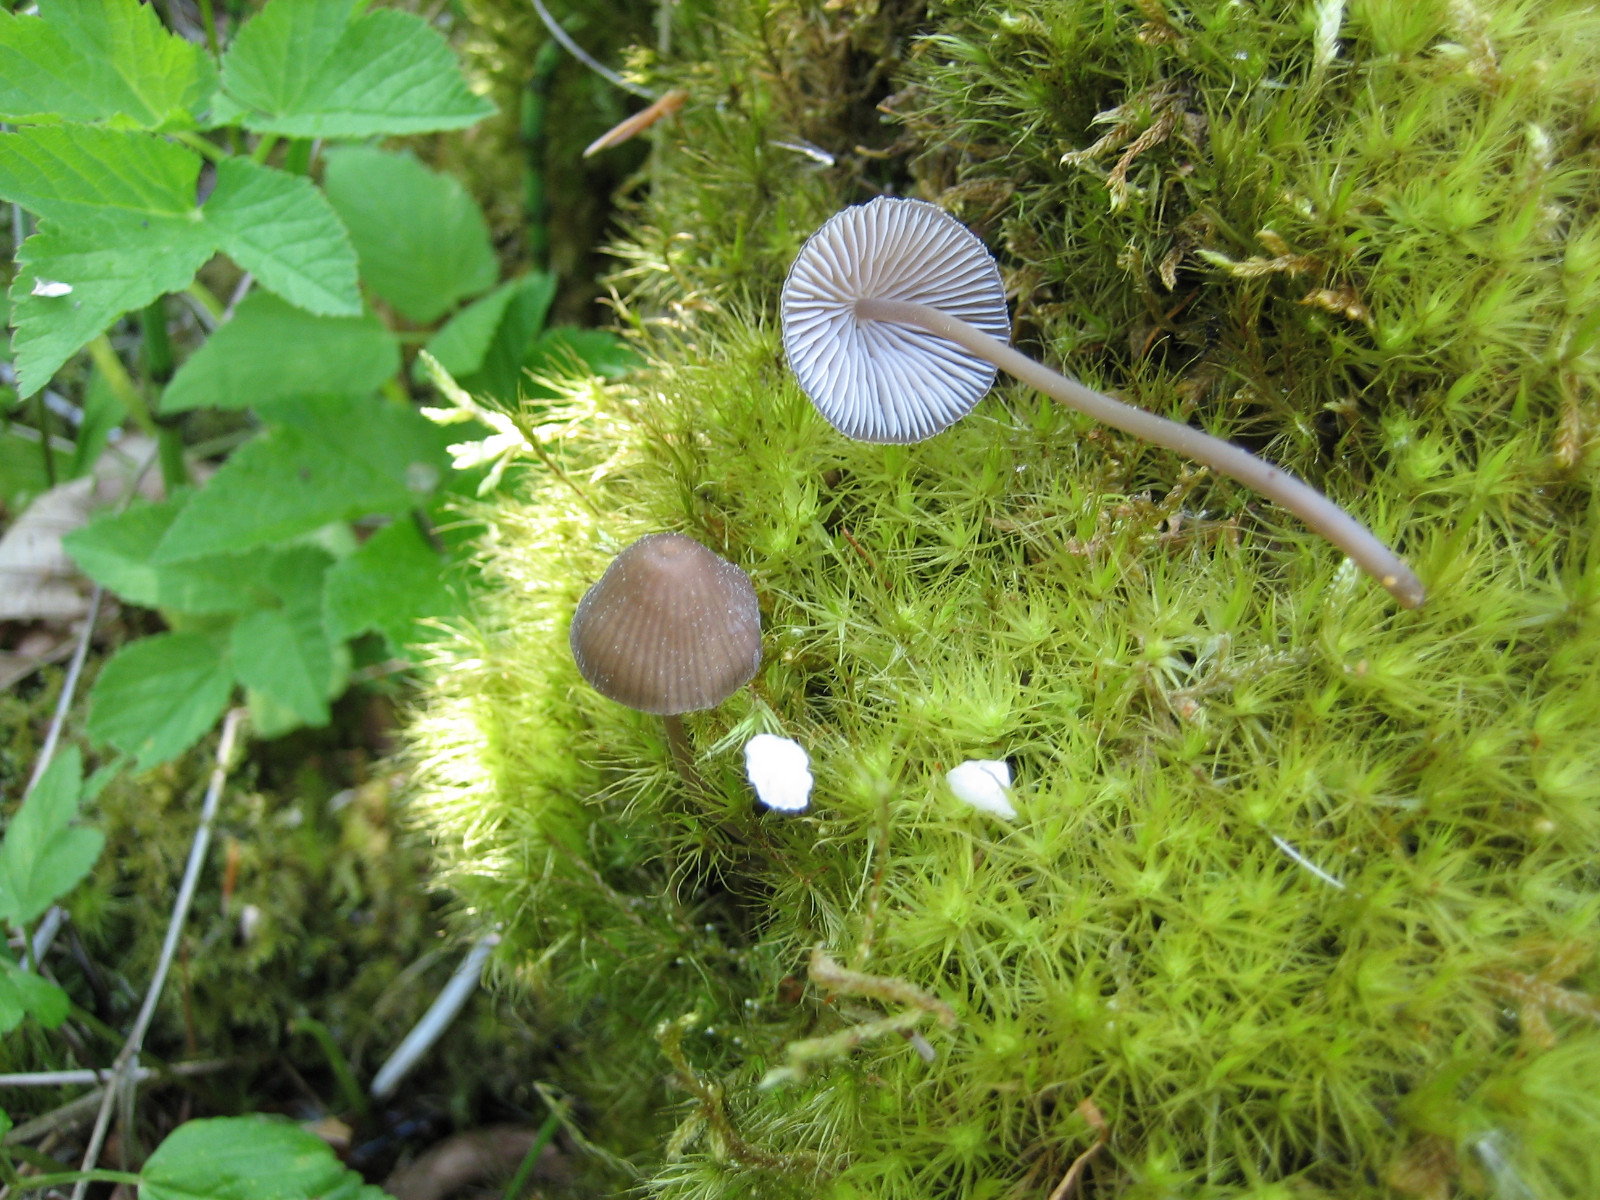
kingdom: Fungi
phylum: Basidiomycota
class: Agaricomycetes
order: Agaricales
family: Mycenaceae
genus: Mycena
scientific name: Mycena silvae-nigrae
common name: tidlig huesvamp
